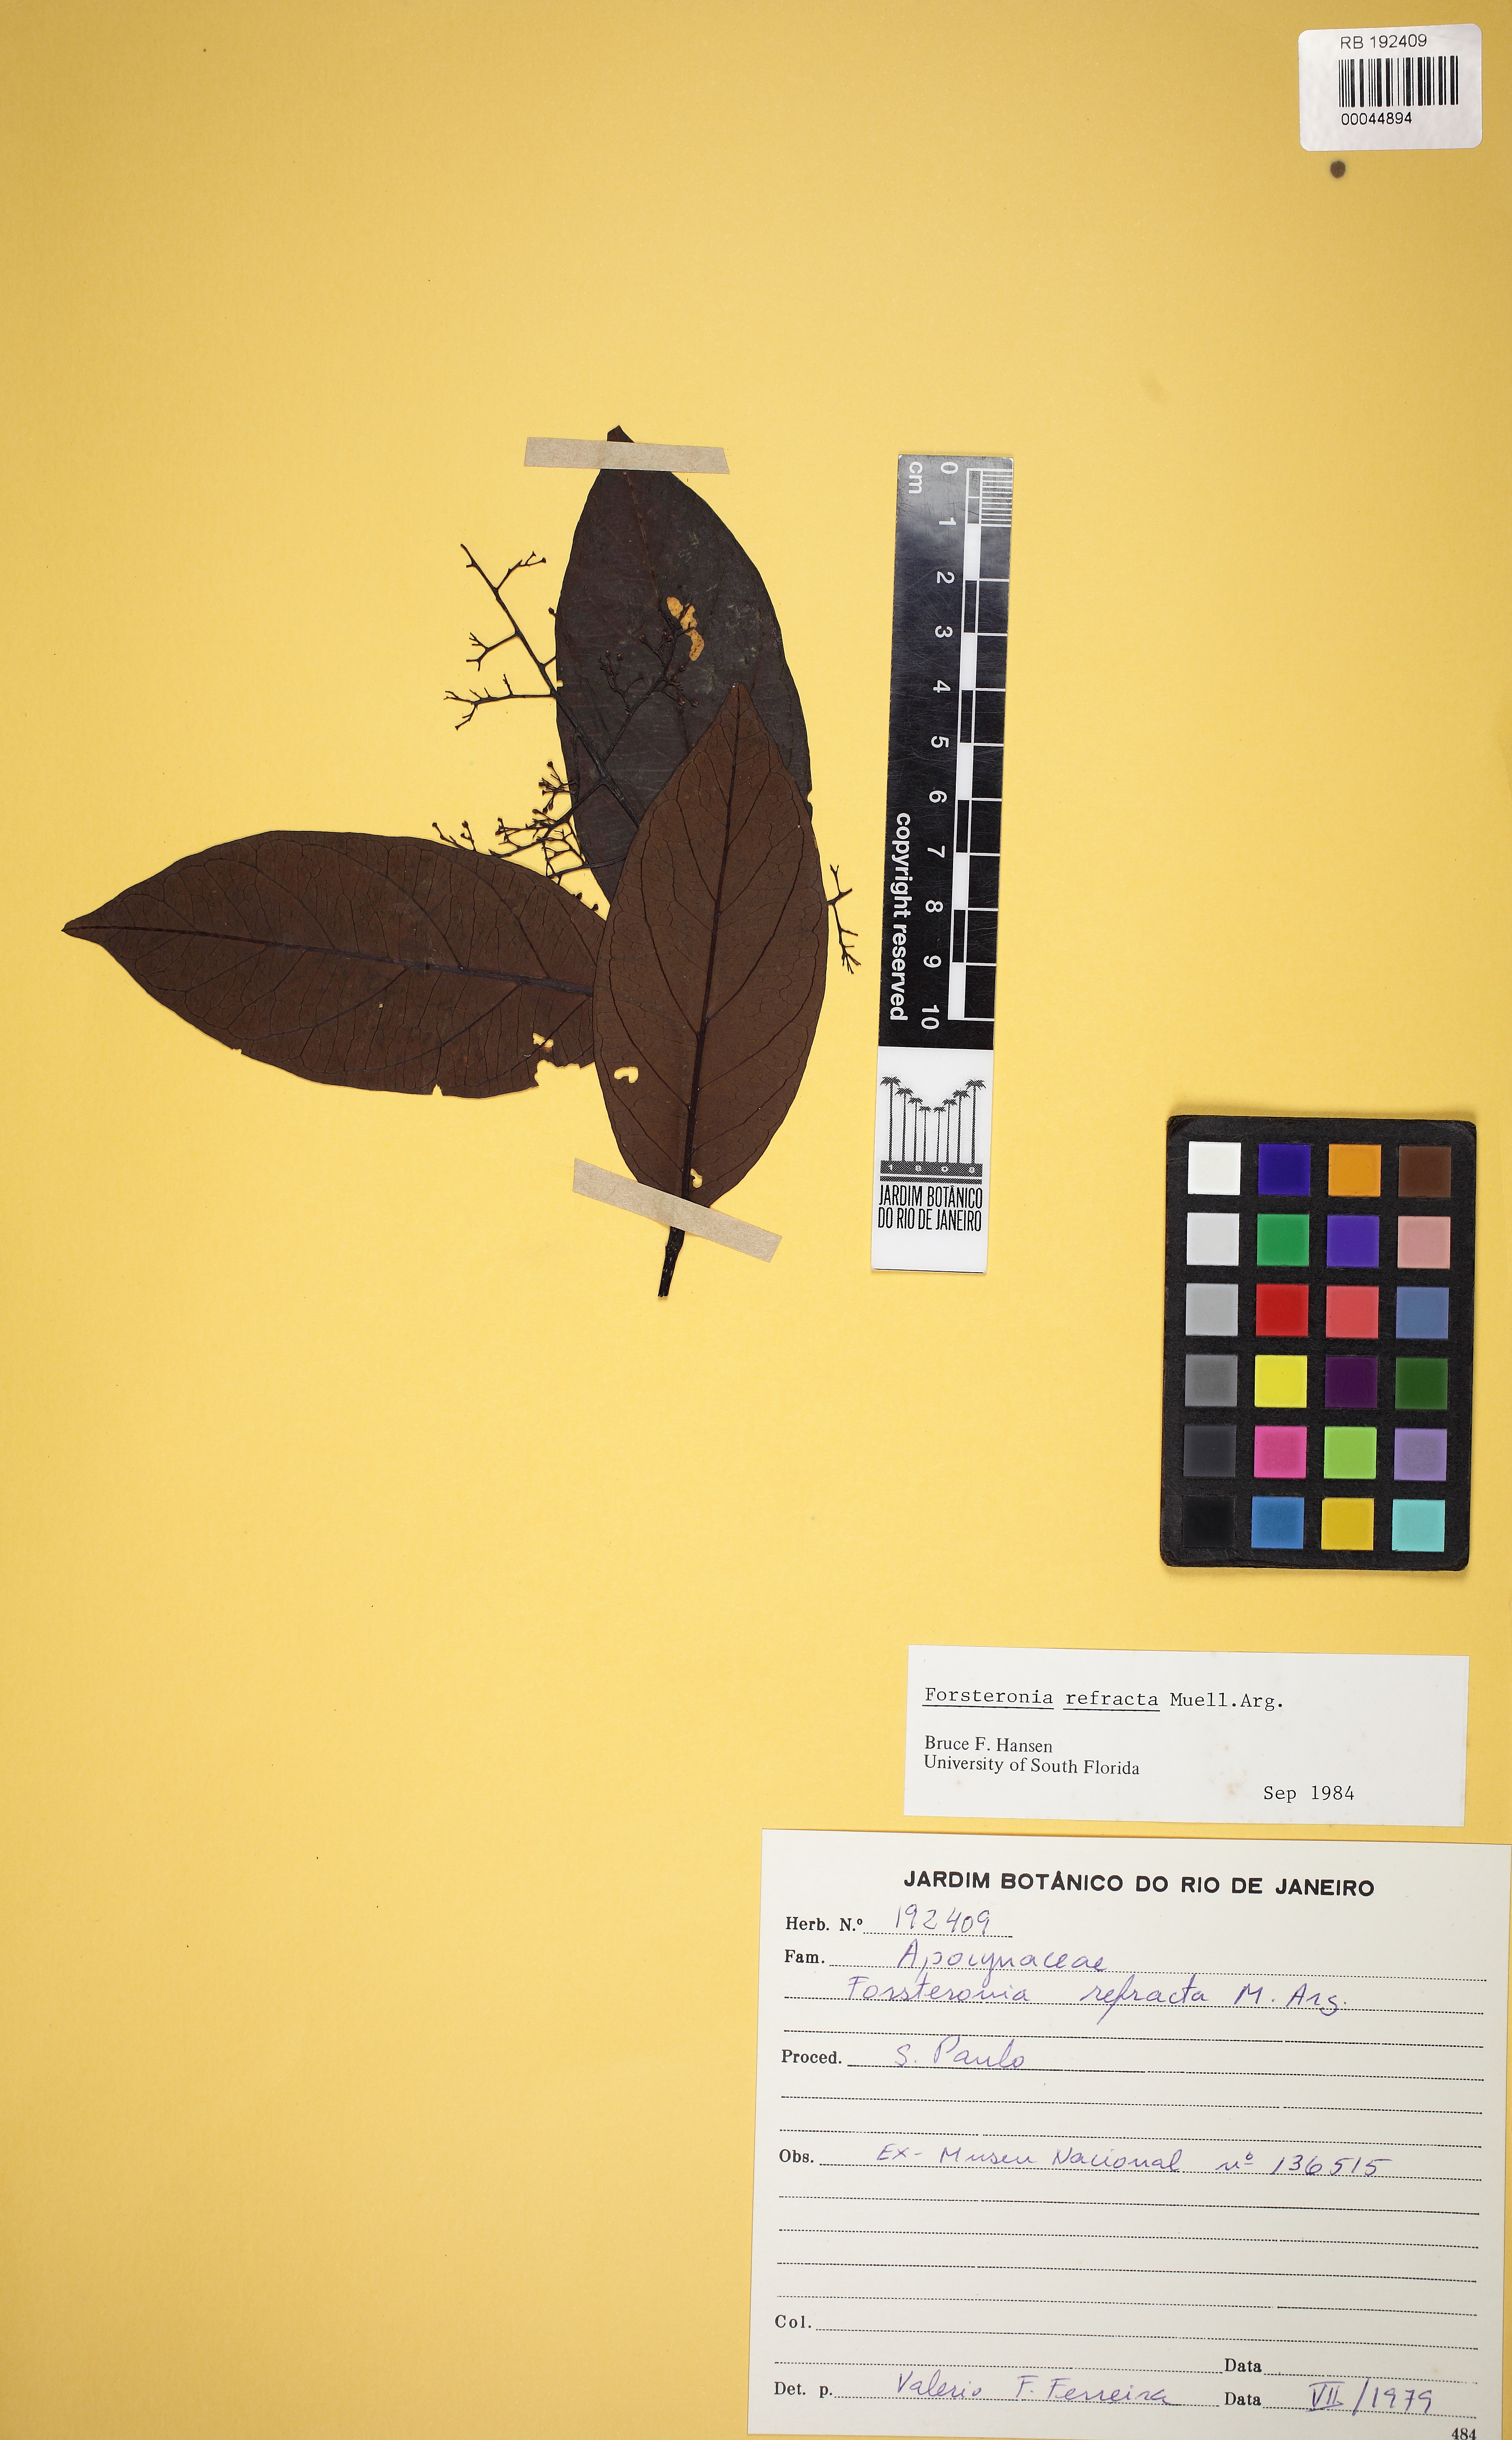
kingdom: Plantae
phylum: Tracheophyta
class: Magnoliopsida
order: Gentianales
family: Apocynaceae
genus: Forsteronia
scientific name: Forsteronia australis
